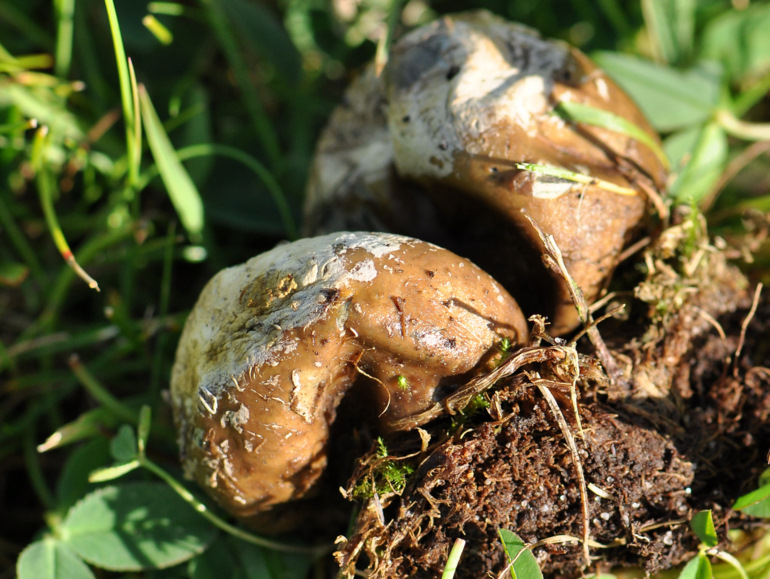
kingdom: Fungi
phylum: Basidiomycota
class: Agaricomycetes
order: Agaricales
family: Lycoperdaceae
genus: Bovista
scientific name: Bovista plumbea
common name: blygrå bovist
